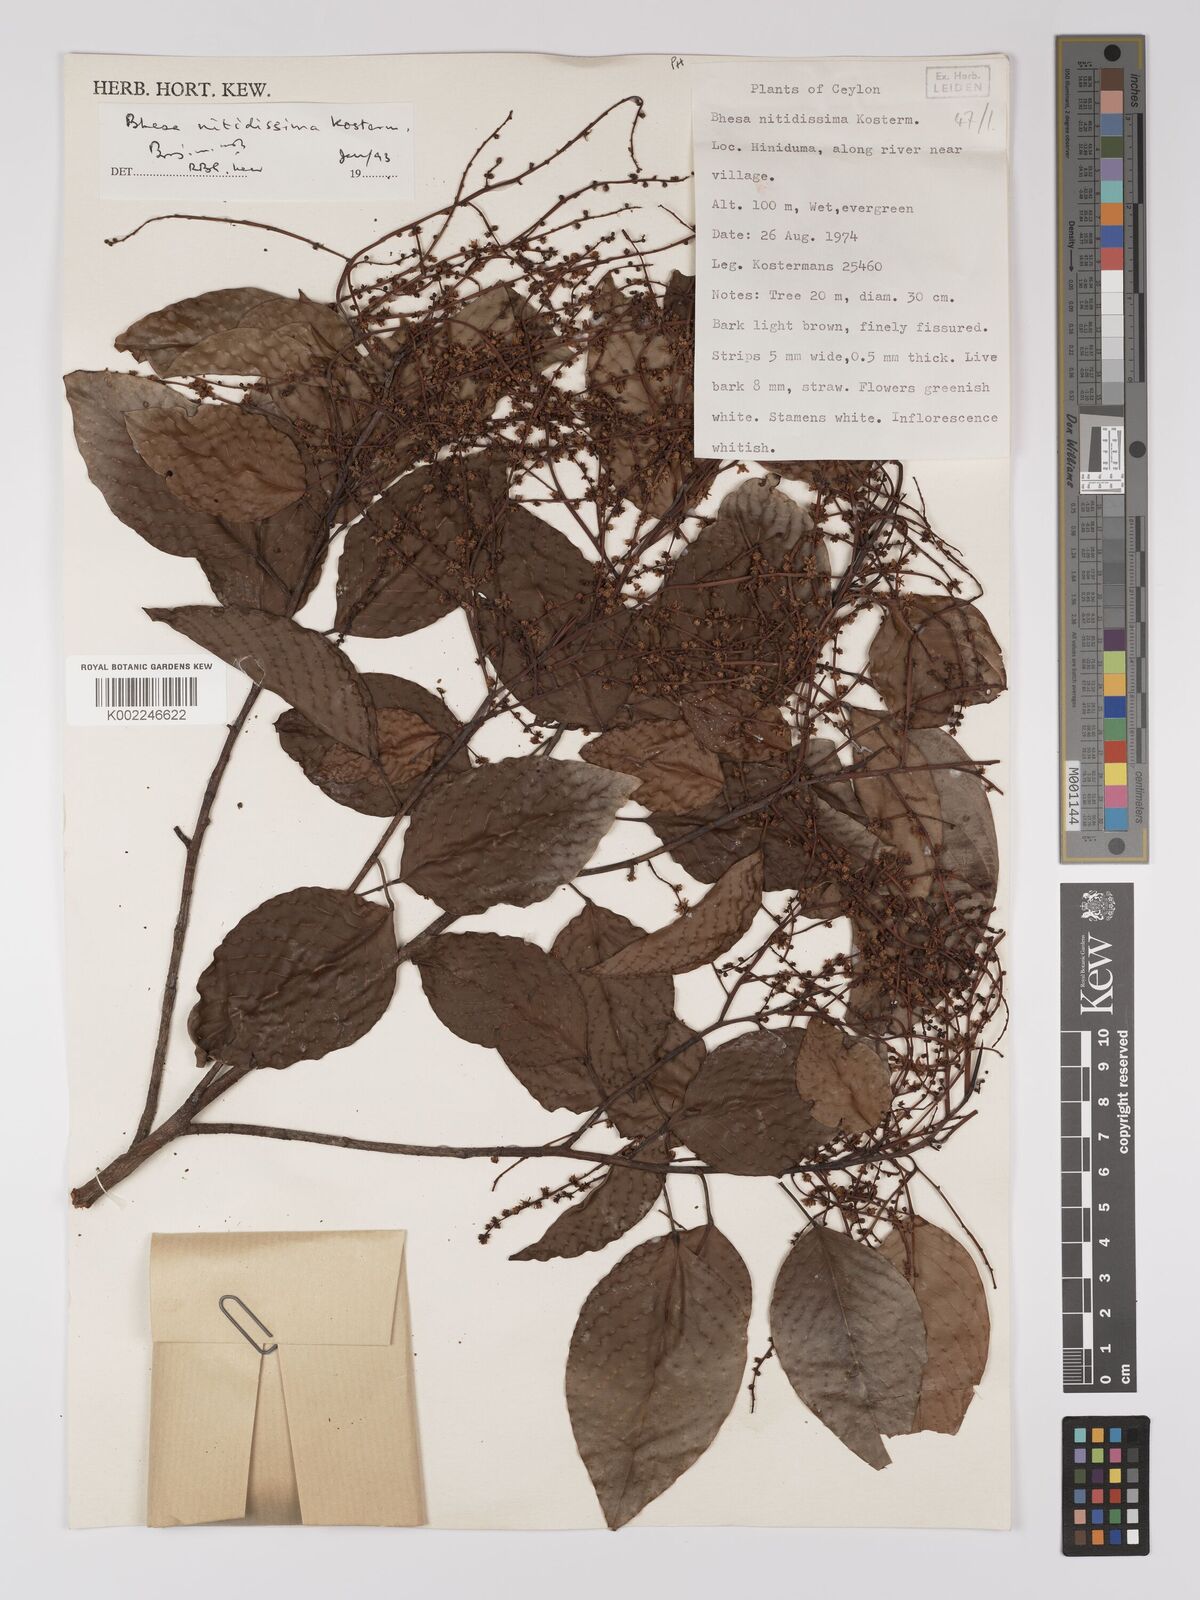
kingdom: Plantae
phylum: Tracheophyta
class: Magnoliopsida
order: Malpighiales
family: Centroplacaceae
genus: Bhesa
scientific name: Bhesa nitidissima
